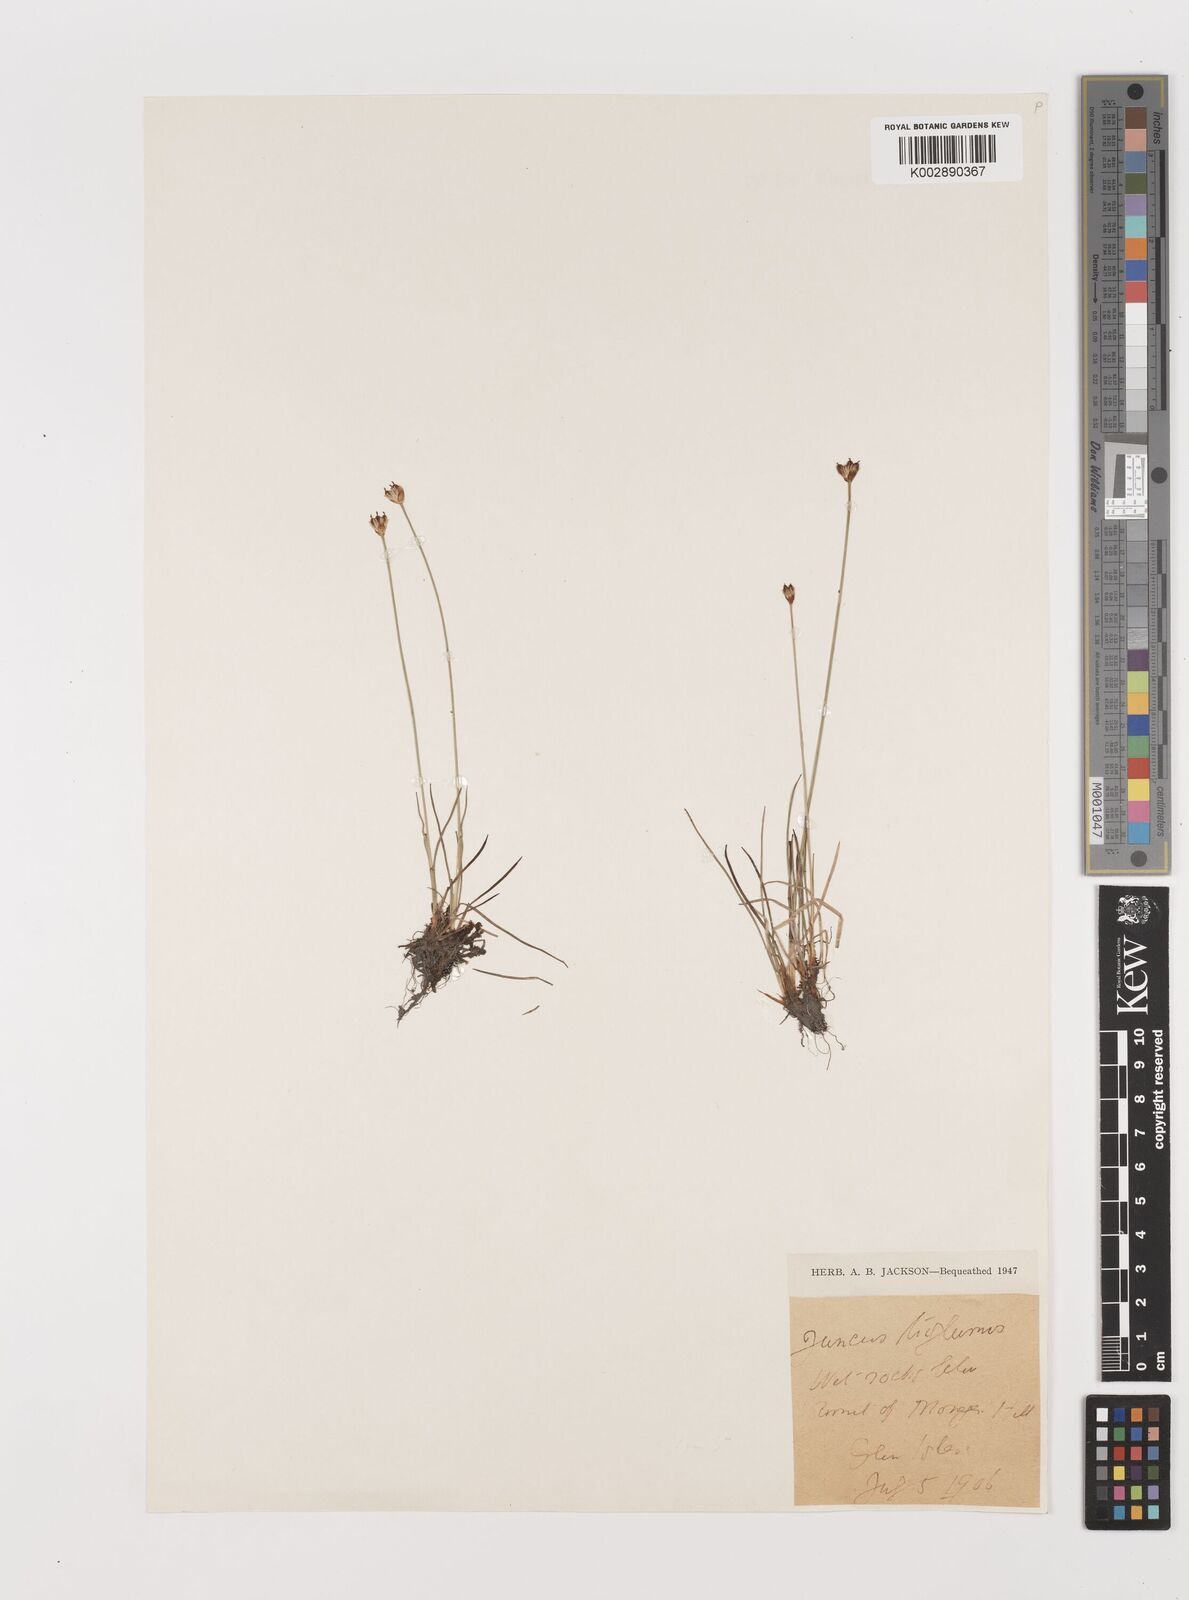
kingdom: Plantae
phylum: Tracheophyta
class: Liliopsida
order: Poales
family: Juncaceae
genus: Juncus
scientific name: Juncus triglumis
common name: Three-flowered rush
